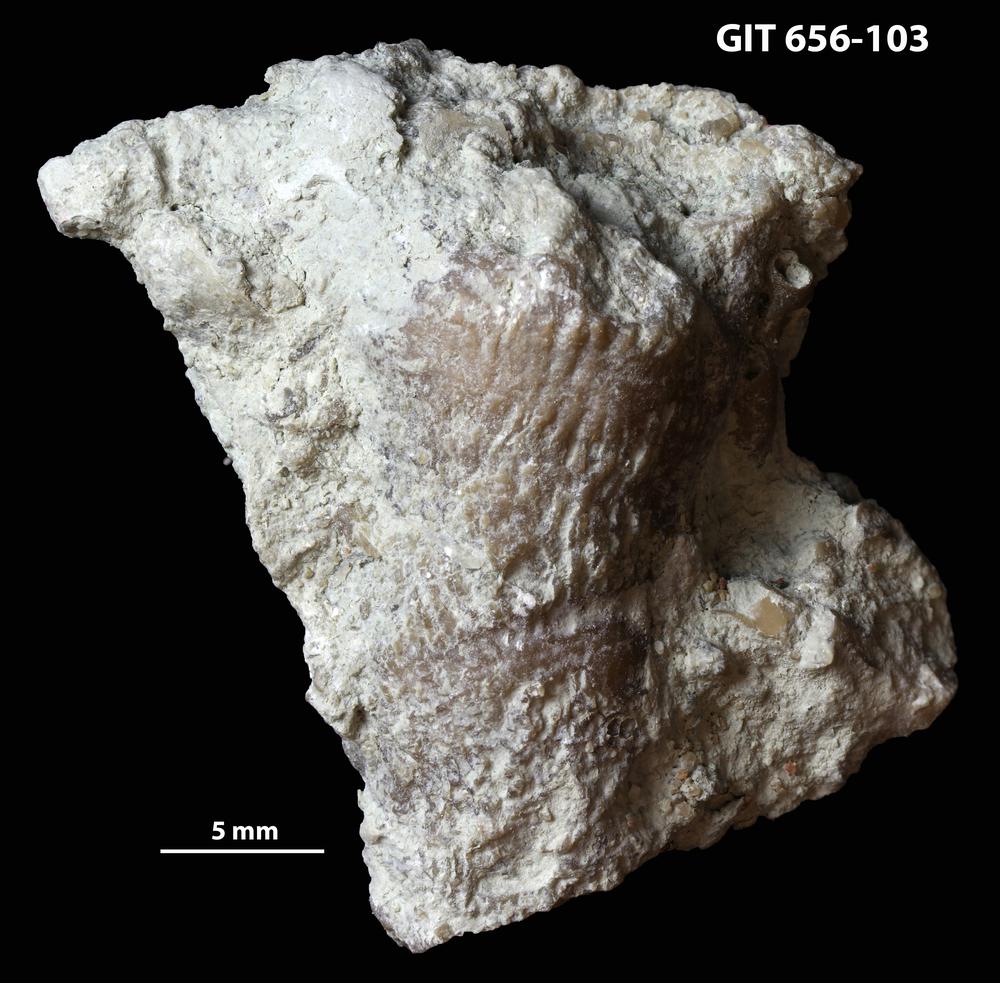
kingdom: Animalia
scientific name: Animalia
